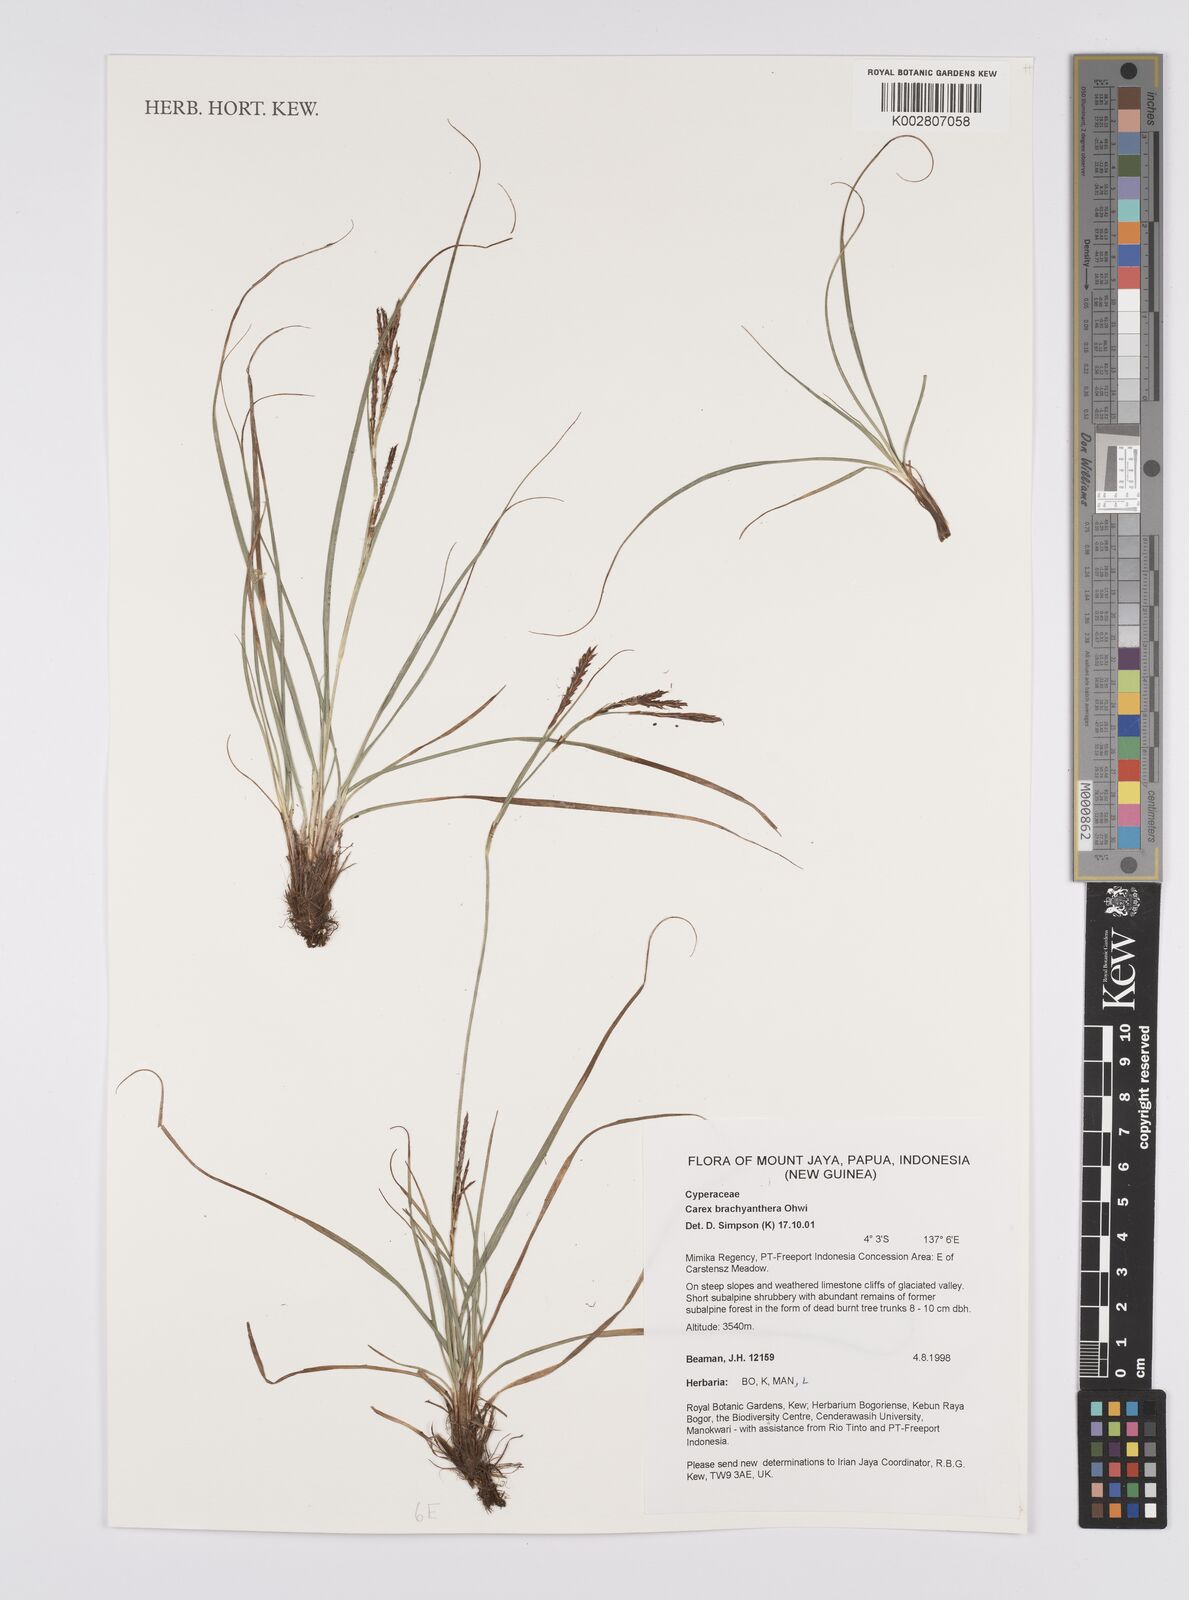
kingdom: Plantae
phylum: Tracheophyta
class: Liliopsida
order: Poales
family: Cyperaceae
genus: Carex
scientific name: Carex brachyanthera
